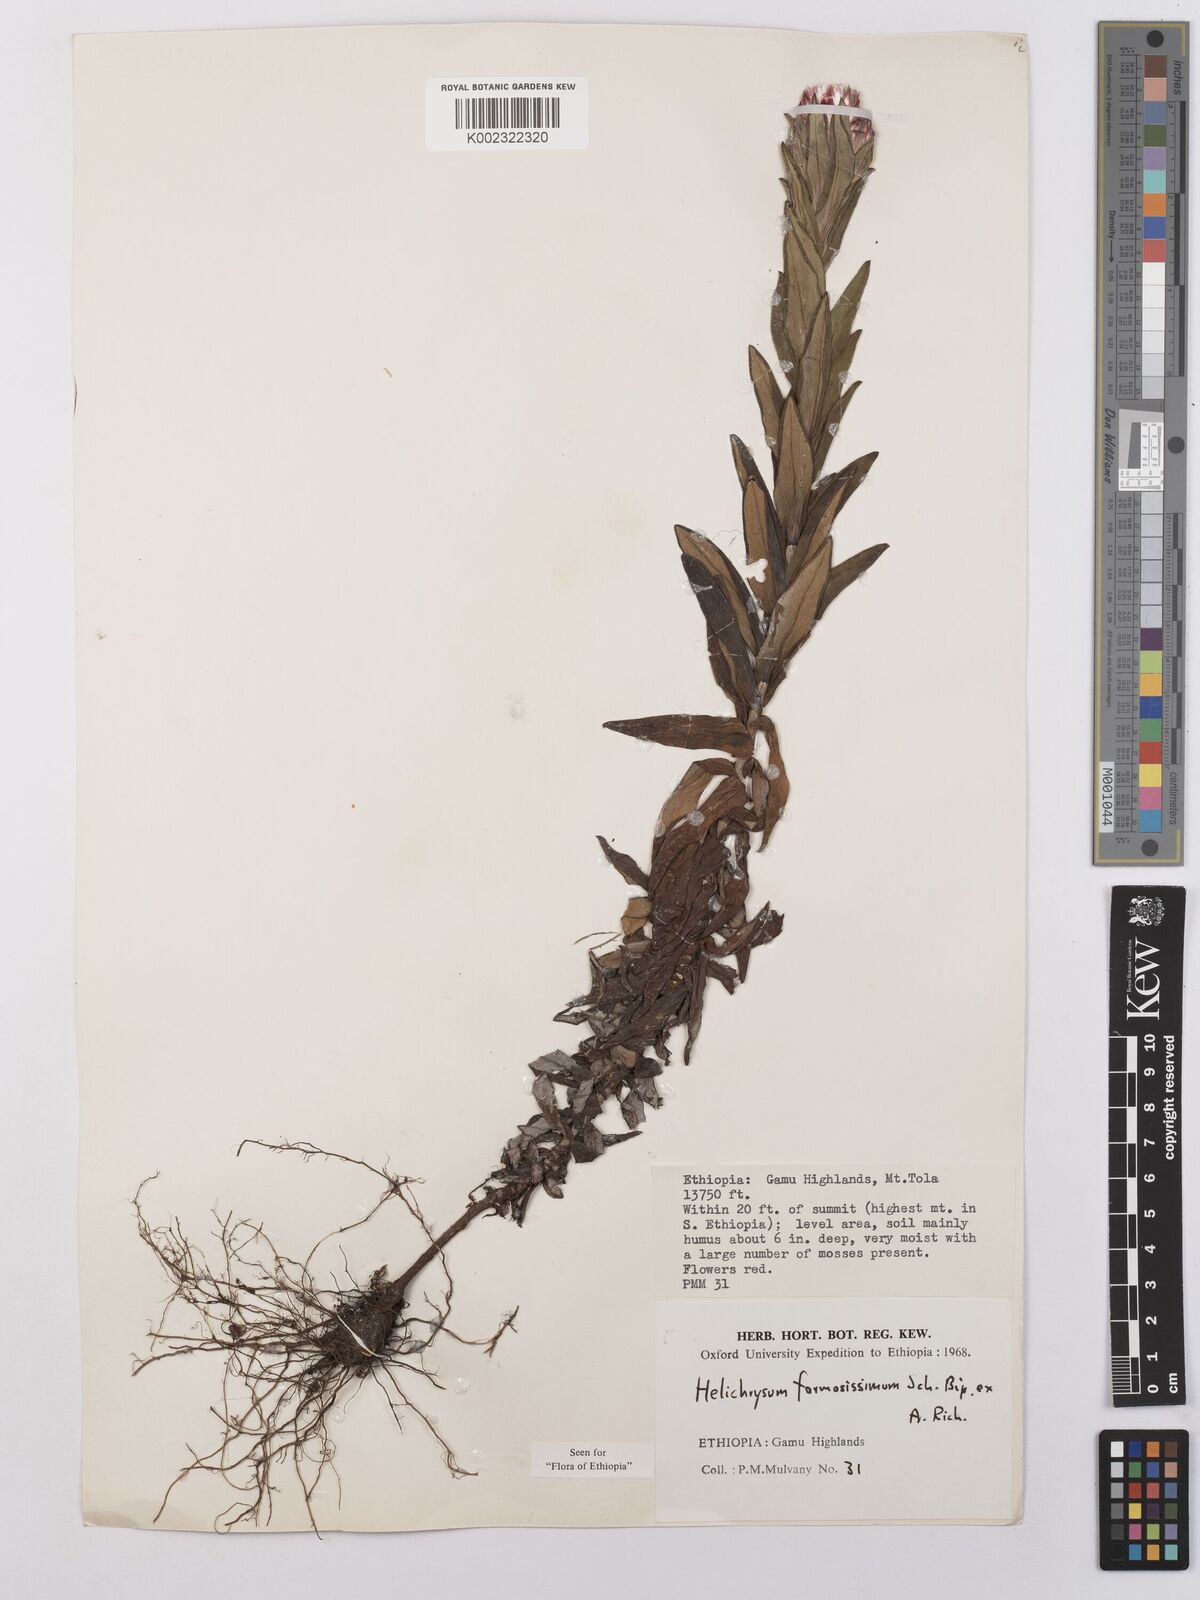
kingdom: Plantae
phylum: Tracheophyta
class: Magnoliopsida
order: Asterales
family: Asteraceae
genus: Helichrysum
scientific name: Helichrysum formosissimum
